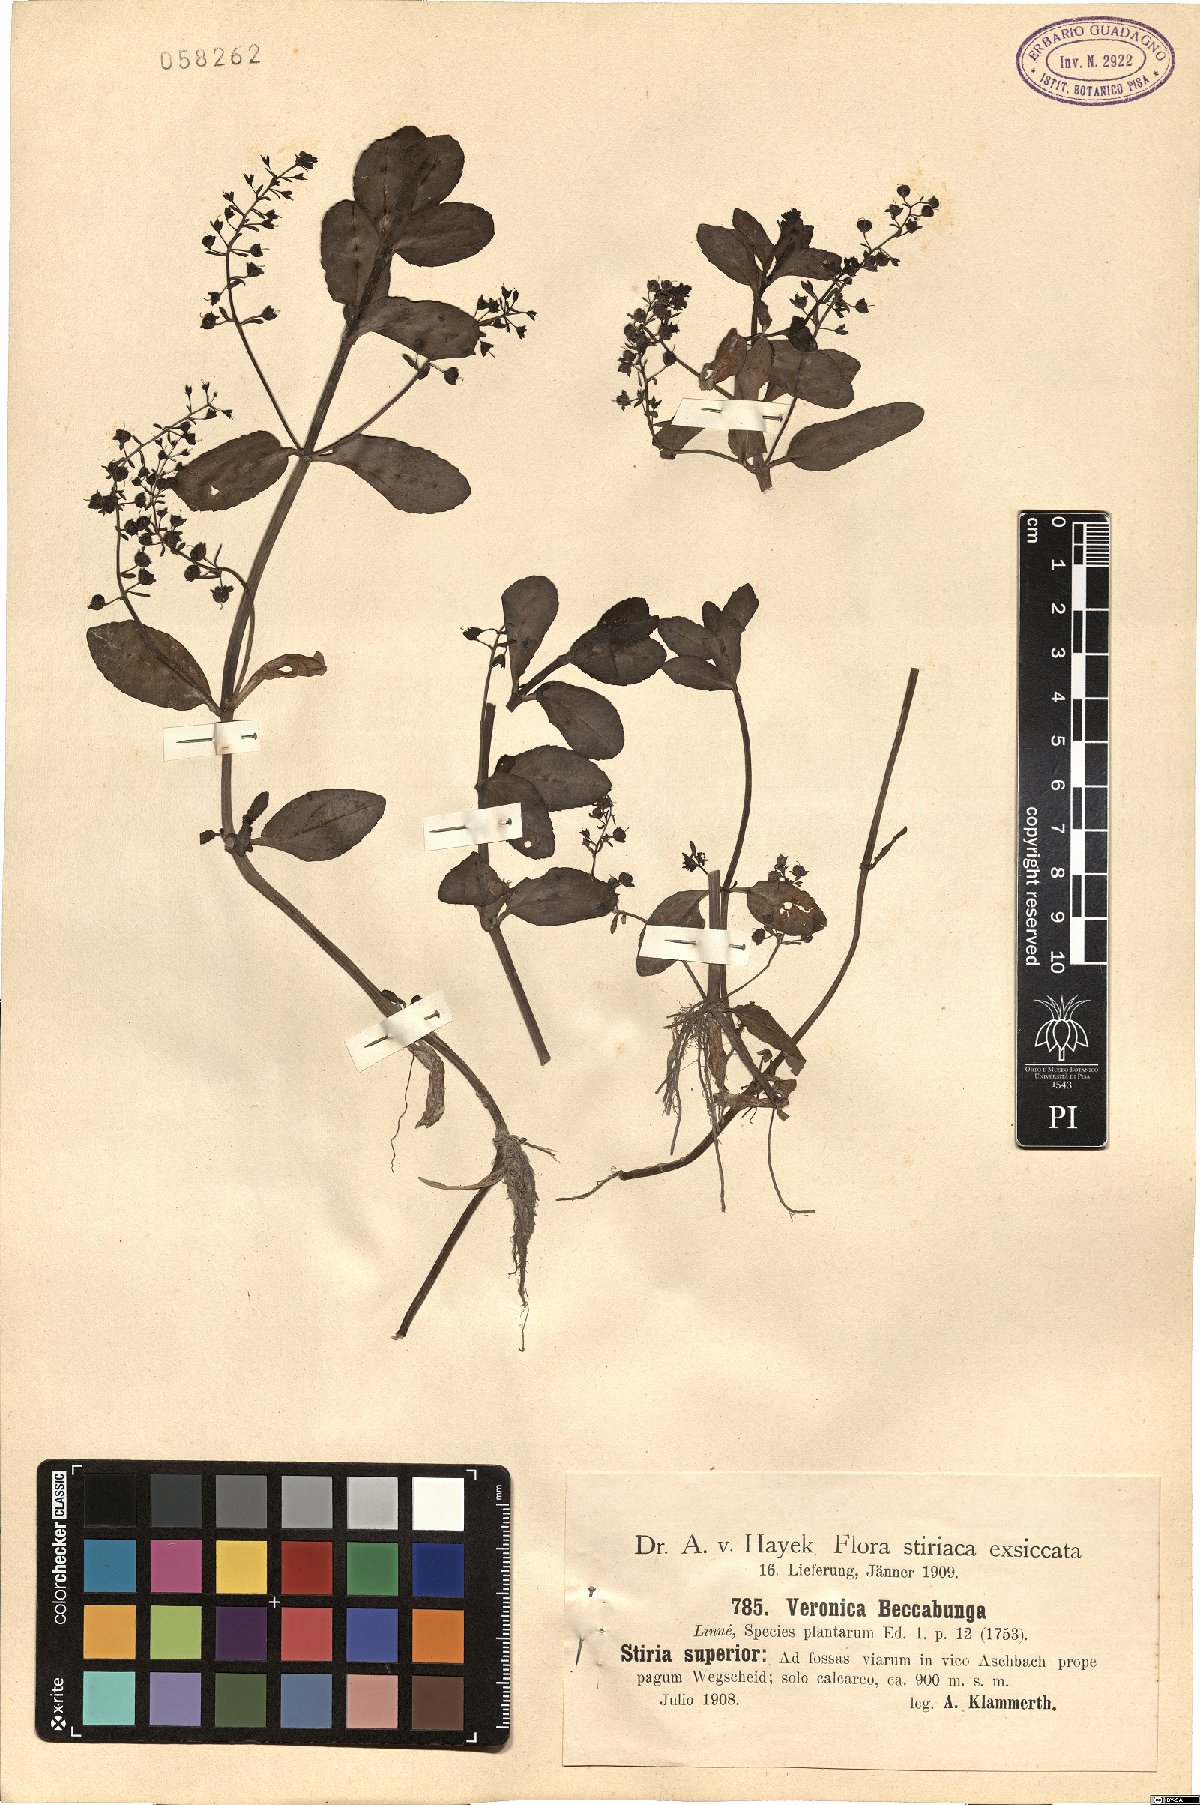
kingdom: Plantae
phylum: Tracheophyta
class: Magnoliopsida
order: Lamiales
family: Plantaginaceae
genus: Veronica
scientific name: Veronica beccabunga
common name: Brooklime
